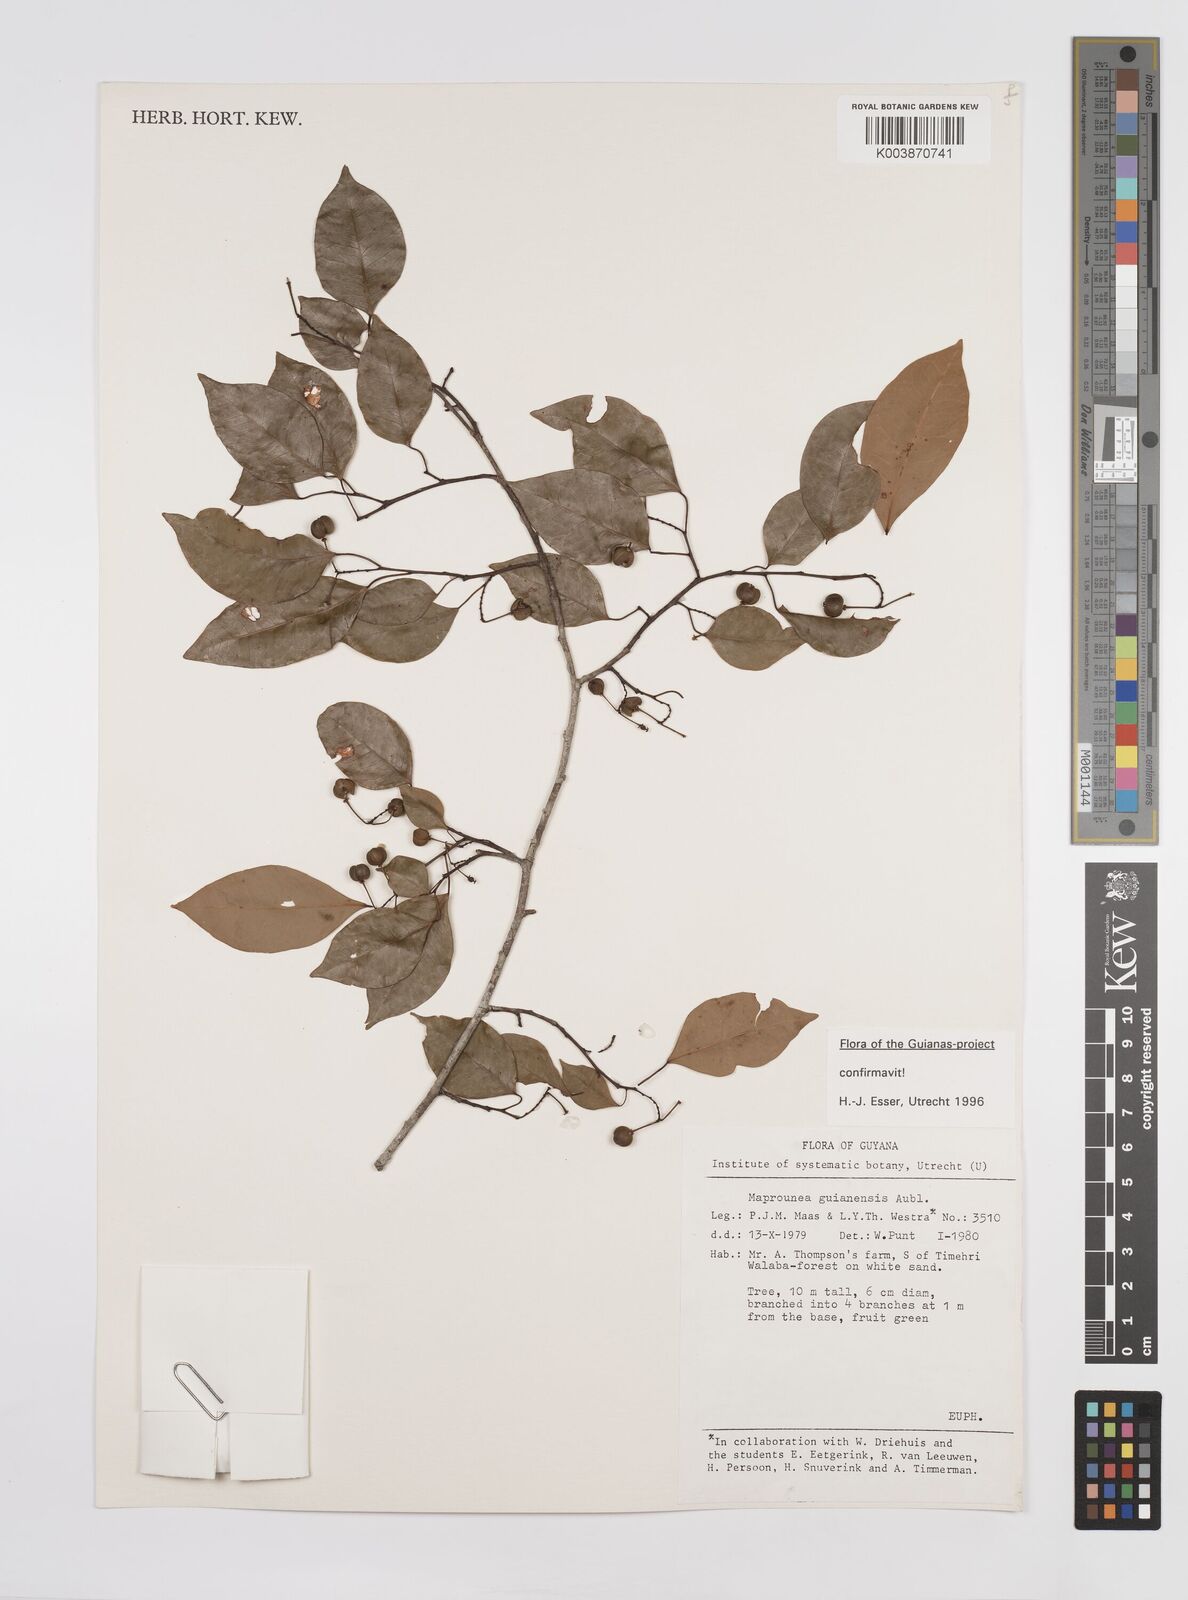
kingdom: Plantae
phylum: Tracheophyta
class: Magnoliopsida
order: Malpighiales
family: Euphorbiaceae
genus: Maprounea
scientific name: Maprounea guianensis
